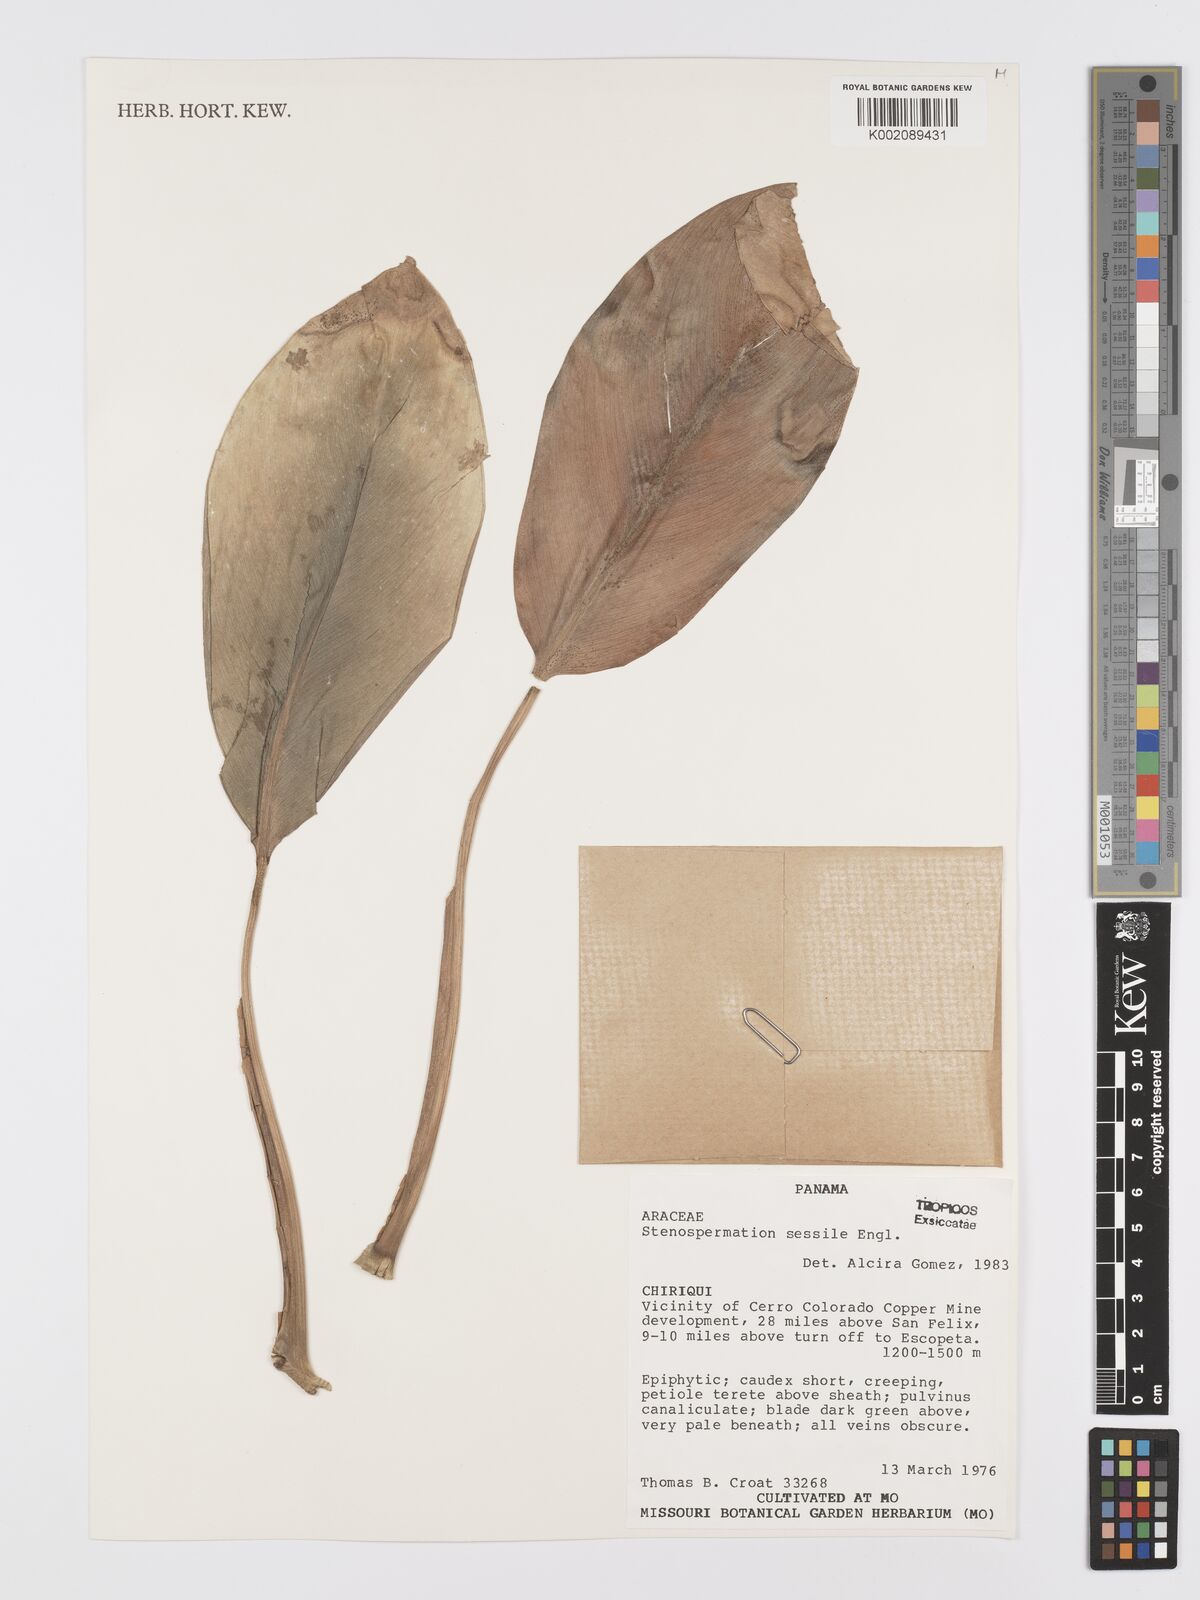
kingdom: Plantae
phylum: Tracheophyta
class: Liliopsida
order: Alismatales
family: Araceae
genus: Stenospermation
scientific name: Stenospermation sessile
